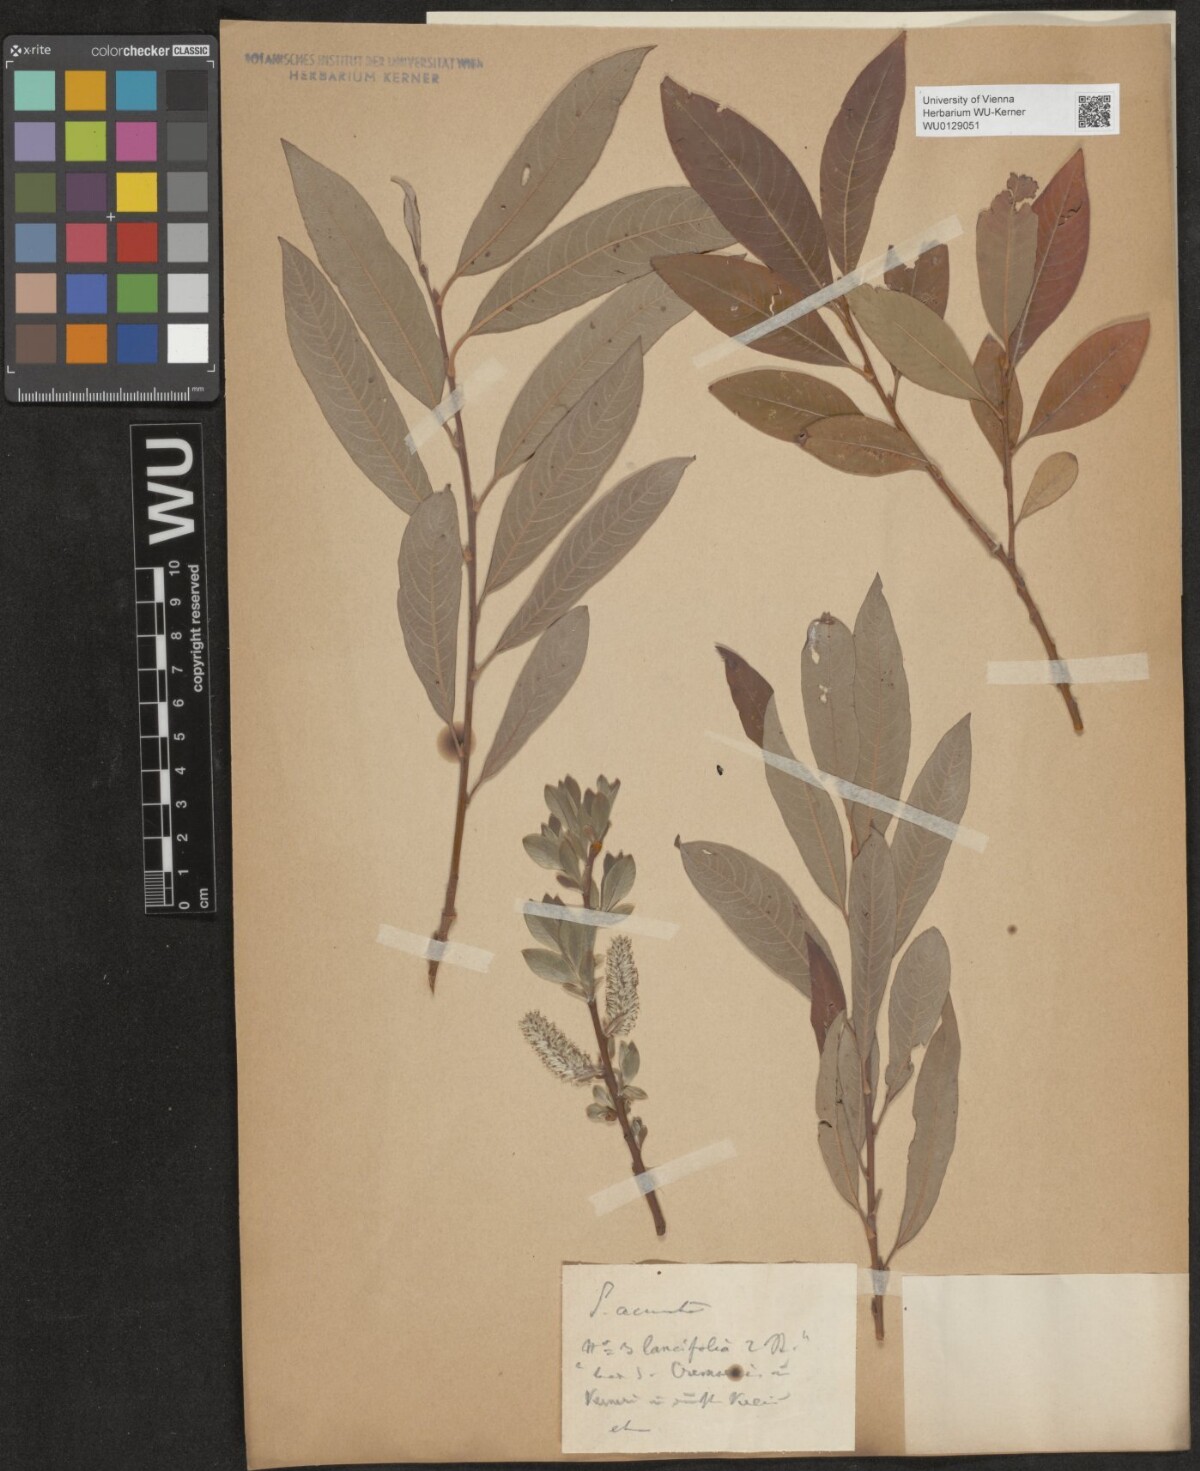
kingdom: Plantae
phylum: Tracheophyta
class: Magnoliopsida
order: Malpighiales
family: Salicaceae
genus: Salix
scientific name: Salix
